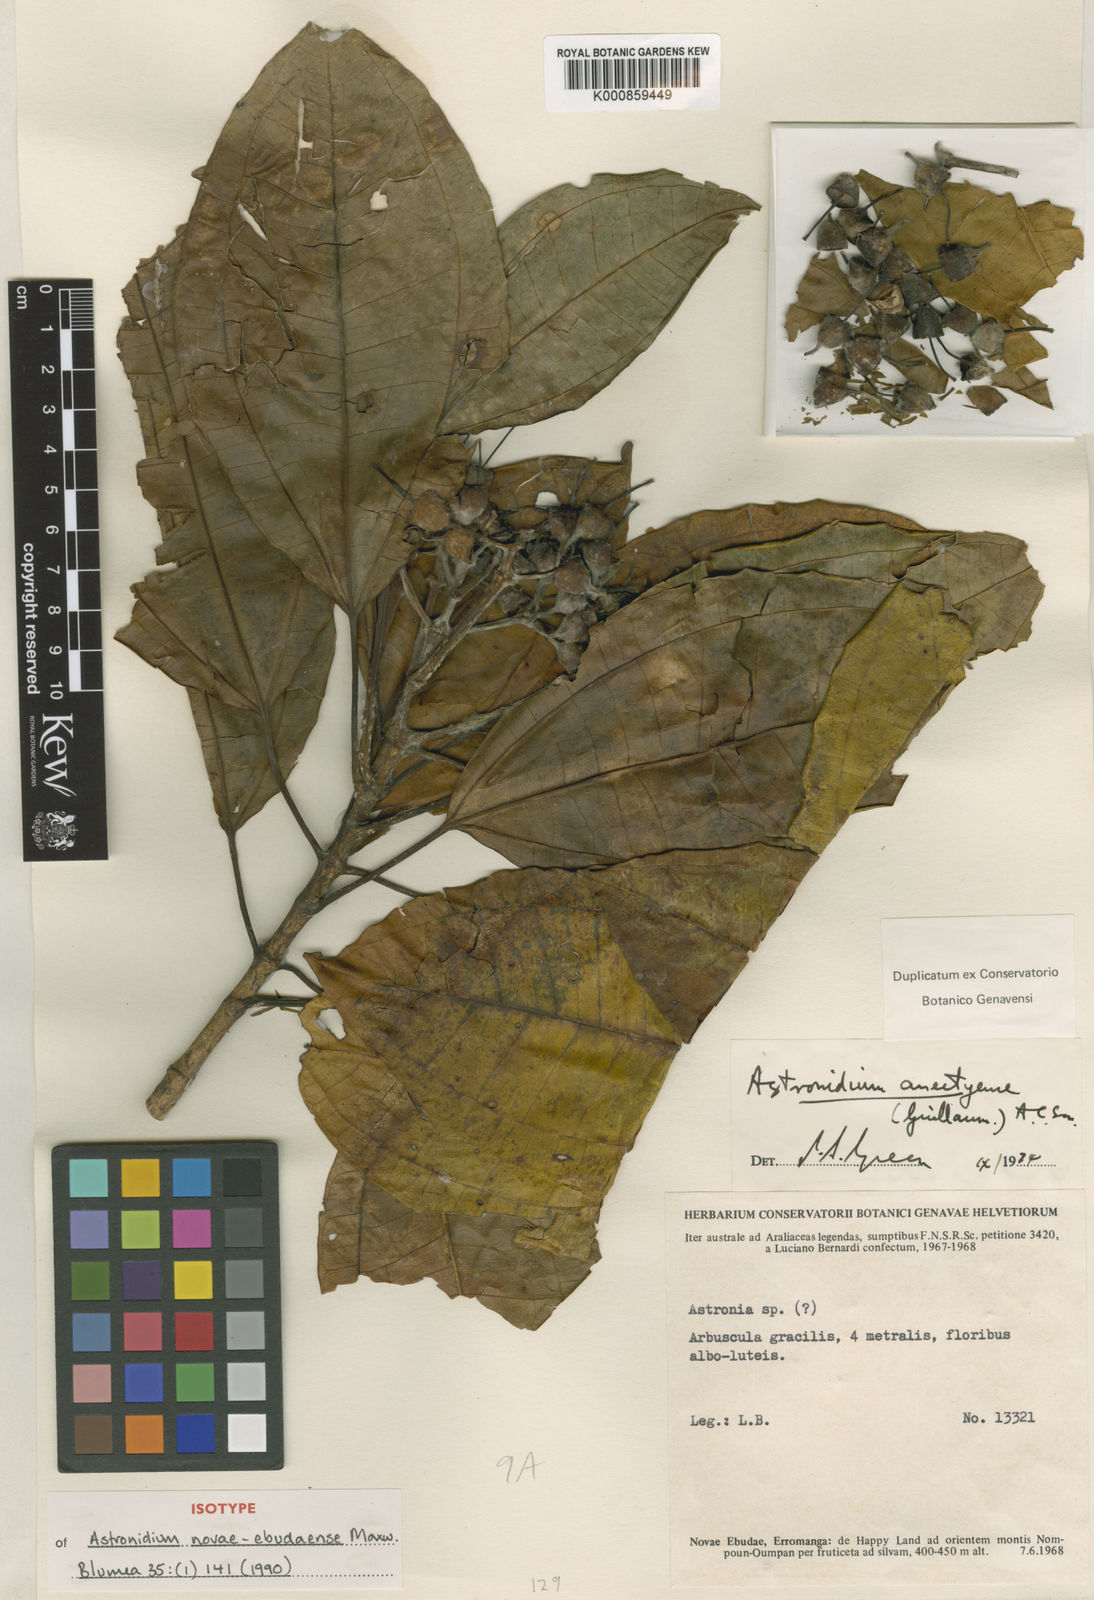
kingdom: Plantae
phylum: Tracheophyta
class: Magnoliopsida
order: Myrtales
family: Melastomataceae
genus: Astronidium
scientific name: Astronidium novae-ebudaense
